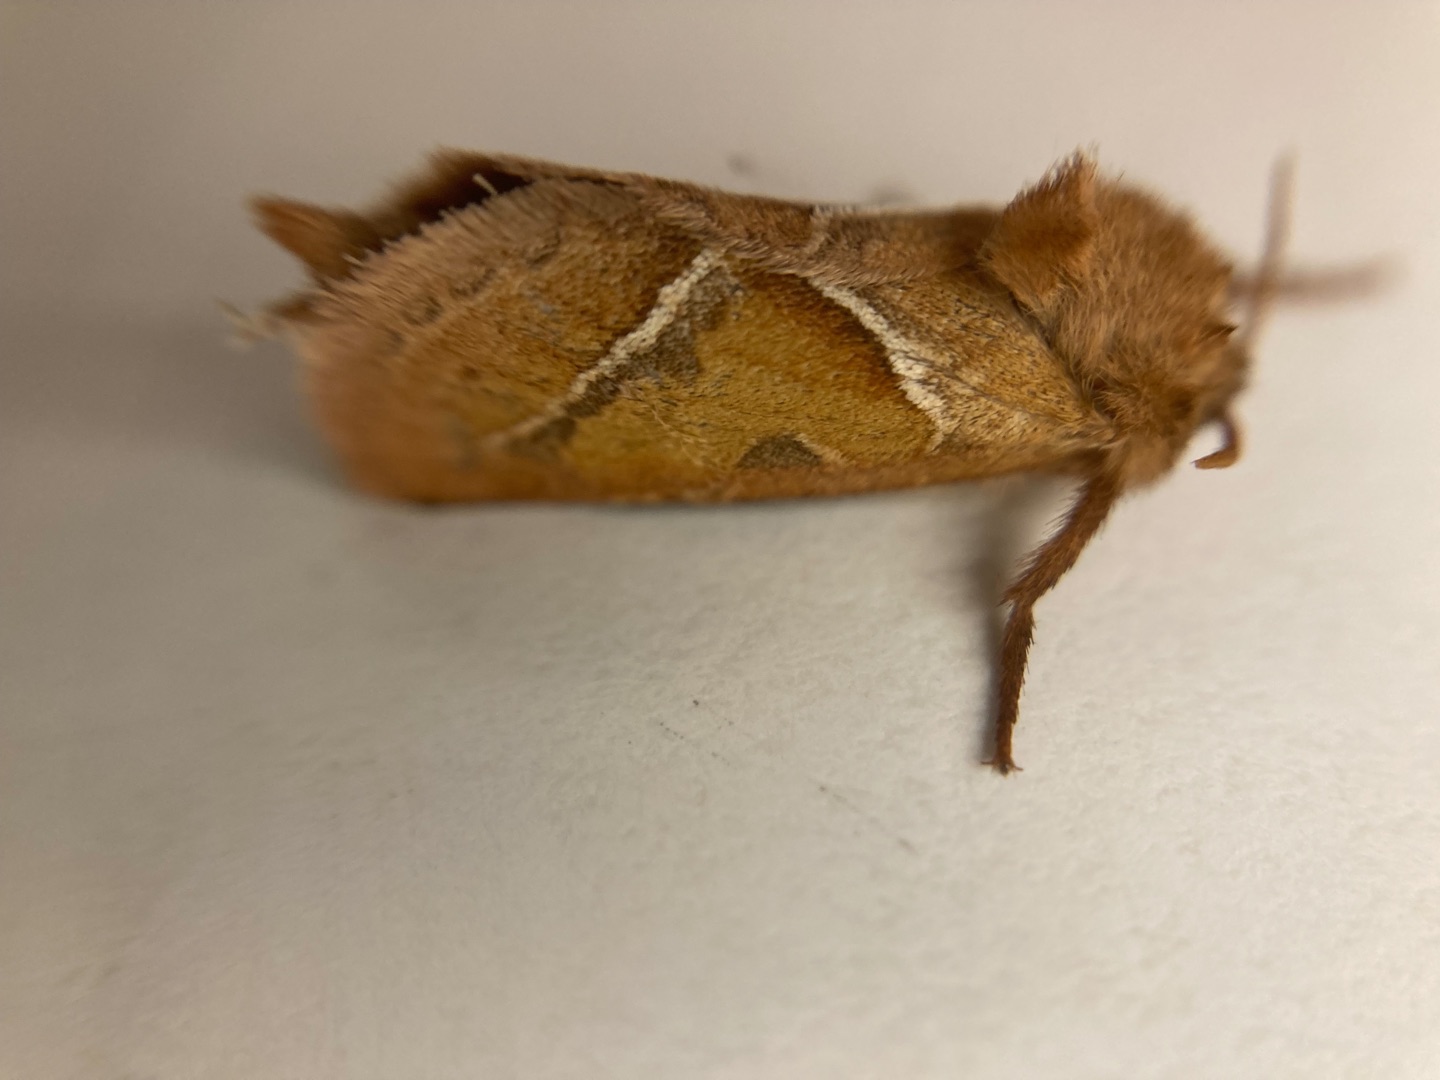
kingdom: Animalia
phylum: Arthropoda
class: Insecta
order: Lepidoptera
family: Hepialidae
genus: Triodia
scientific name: Triodia sylvina
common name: Skræpperodæder
